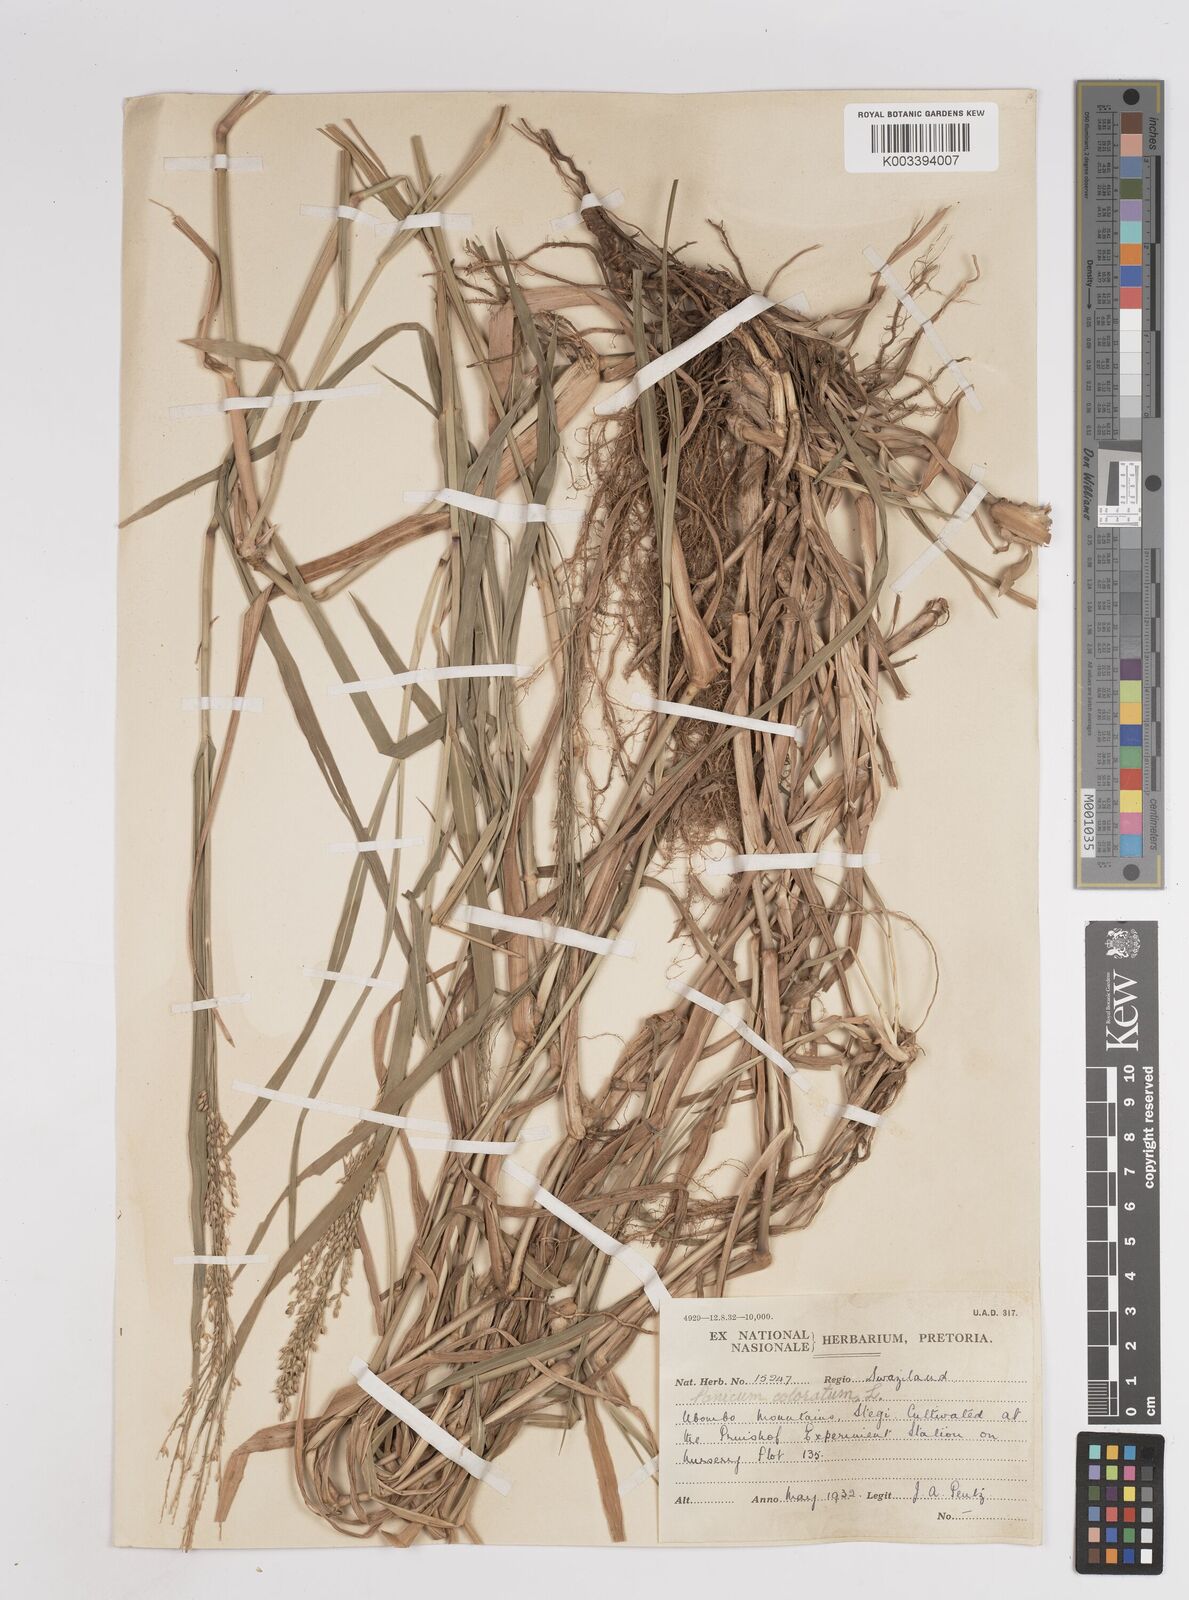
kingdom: Plantae
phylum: Tracheophyta
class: Liliopsida
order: Poales
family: Poaceae
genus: Panicum
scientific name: Panicum coloratum
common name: Kleingrass
